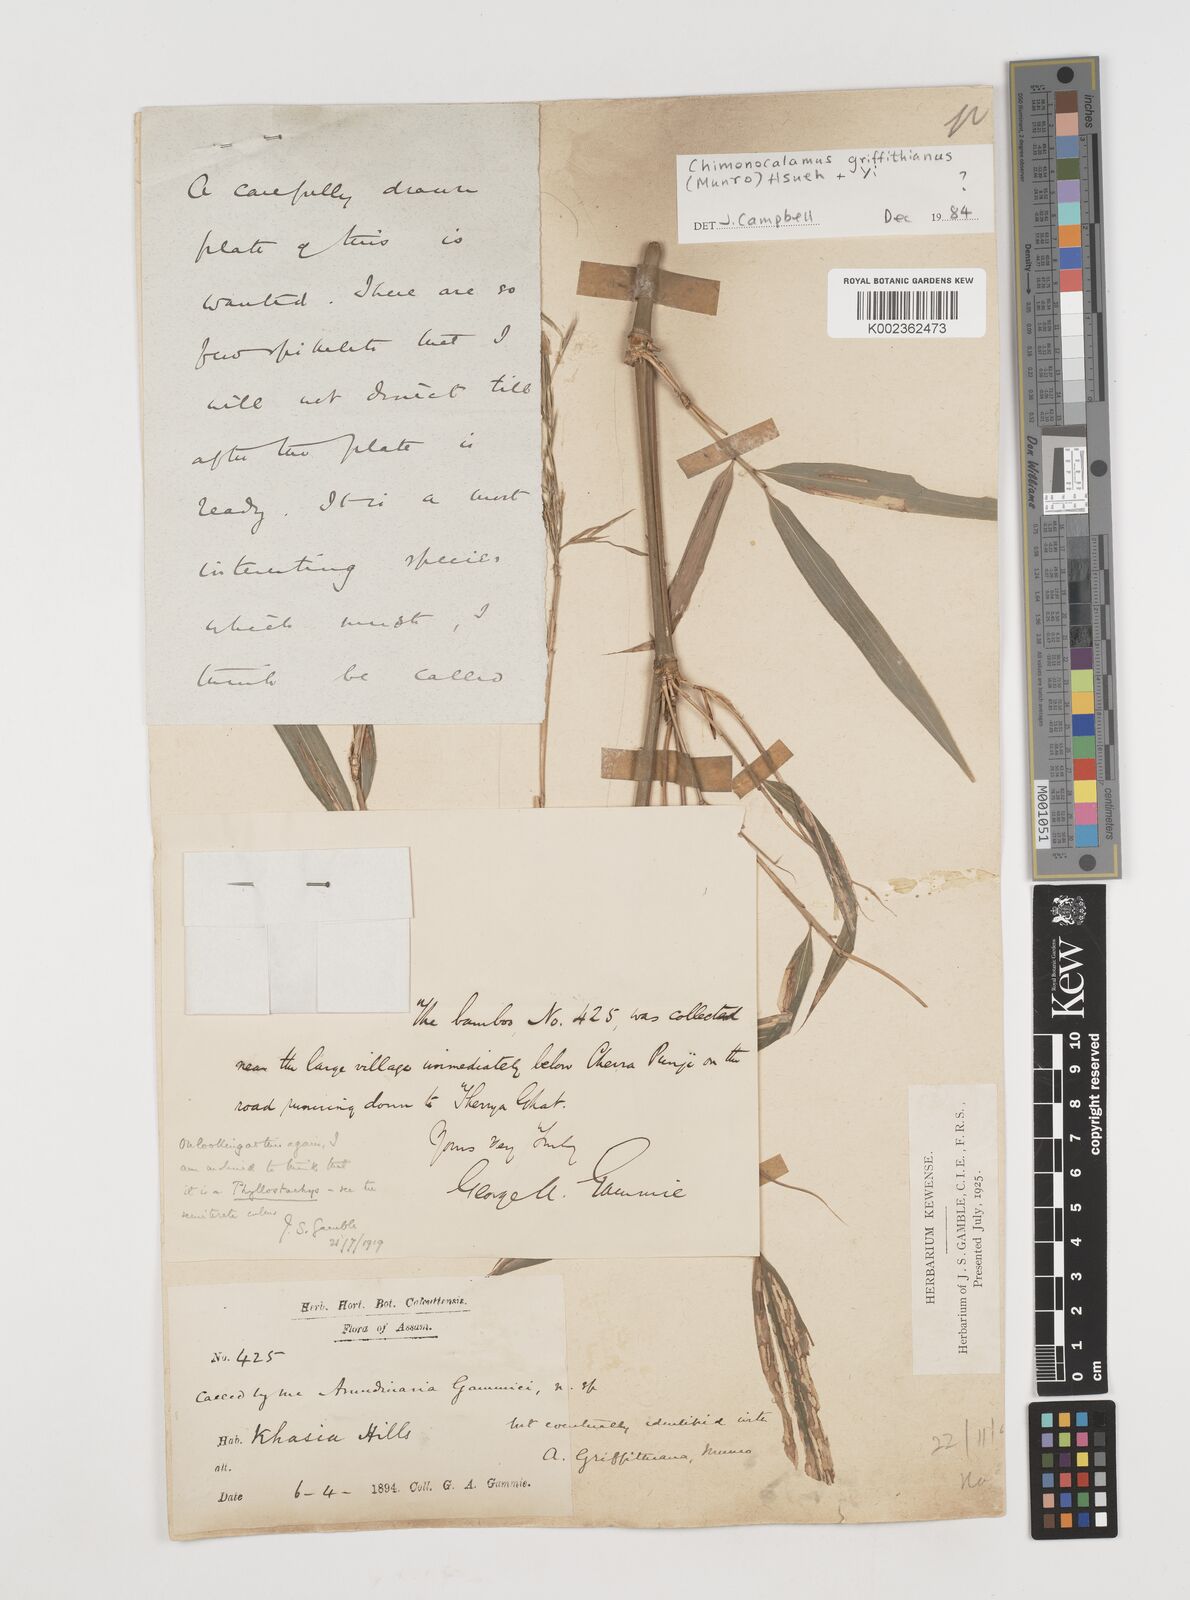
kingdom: Plantae
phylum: Tracheophyta
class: Liliopsida
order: Poales
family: Poaceae
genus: Chimonocalamus
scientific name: Chimonocalamus griffithianus
